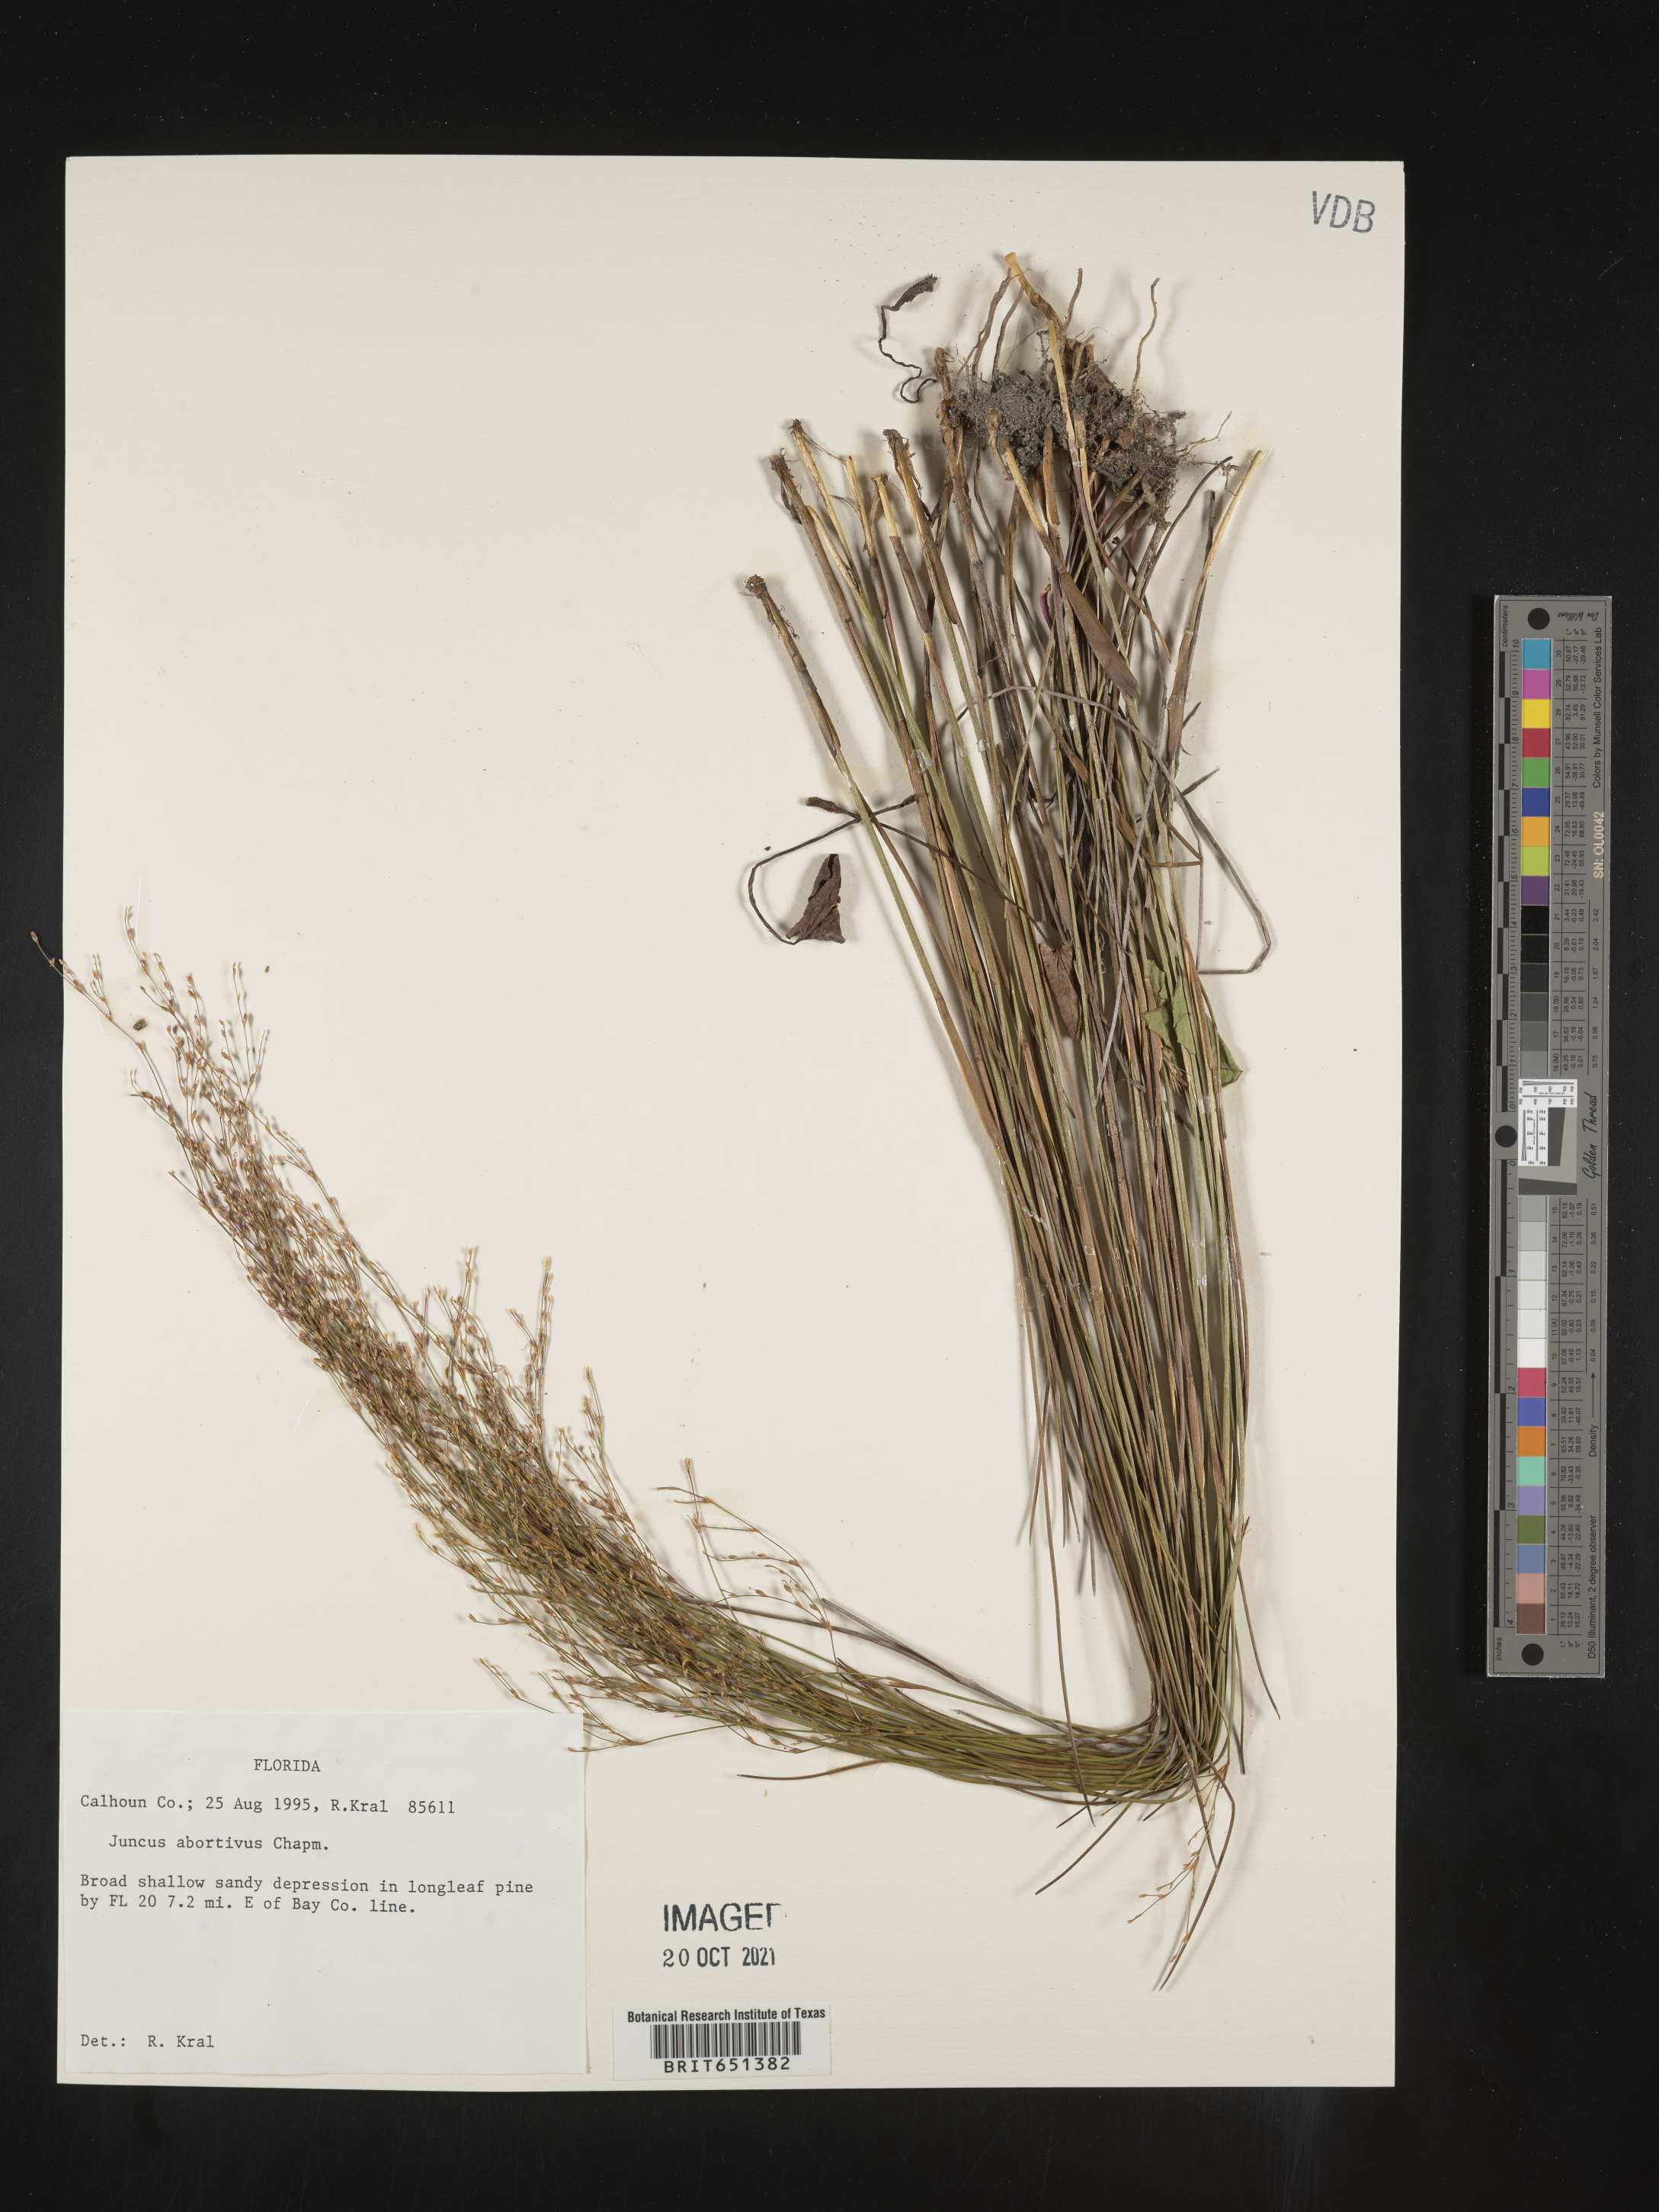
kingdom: Plantae
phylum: Tracheophyta
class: Liliopsida
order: Poales
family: Juncaceae
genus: Juncus
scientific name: Juncus abortivus
